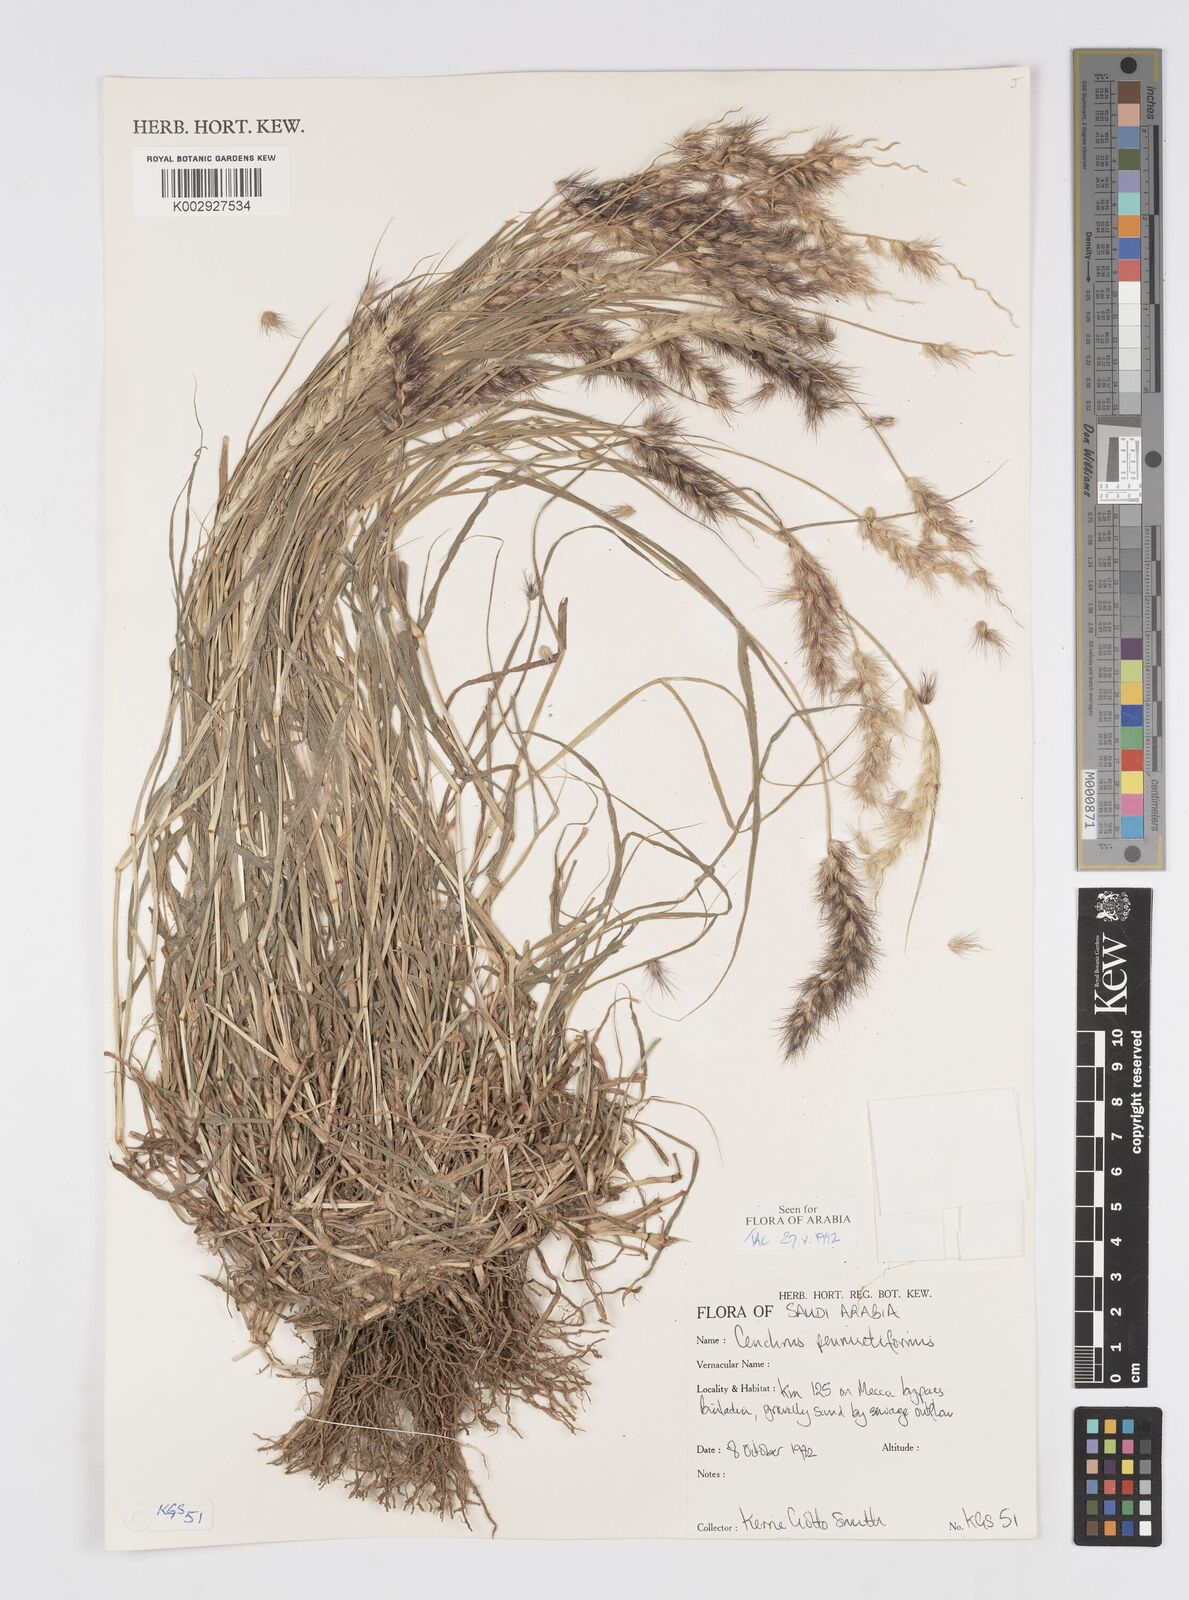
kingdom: Plantae
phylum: Tracheophyta
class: Liliopsida
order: Poales
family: Poaceae
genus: Cenchrus
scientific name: Cenchrus
